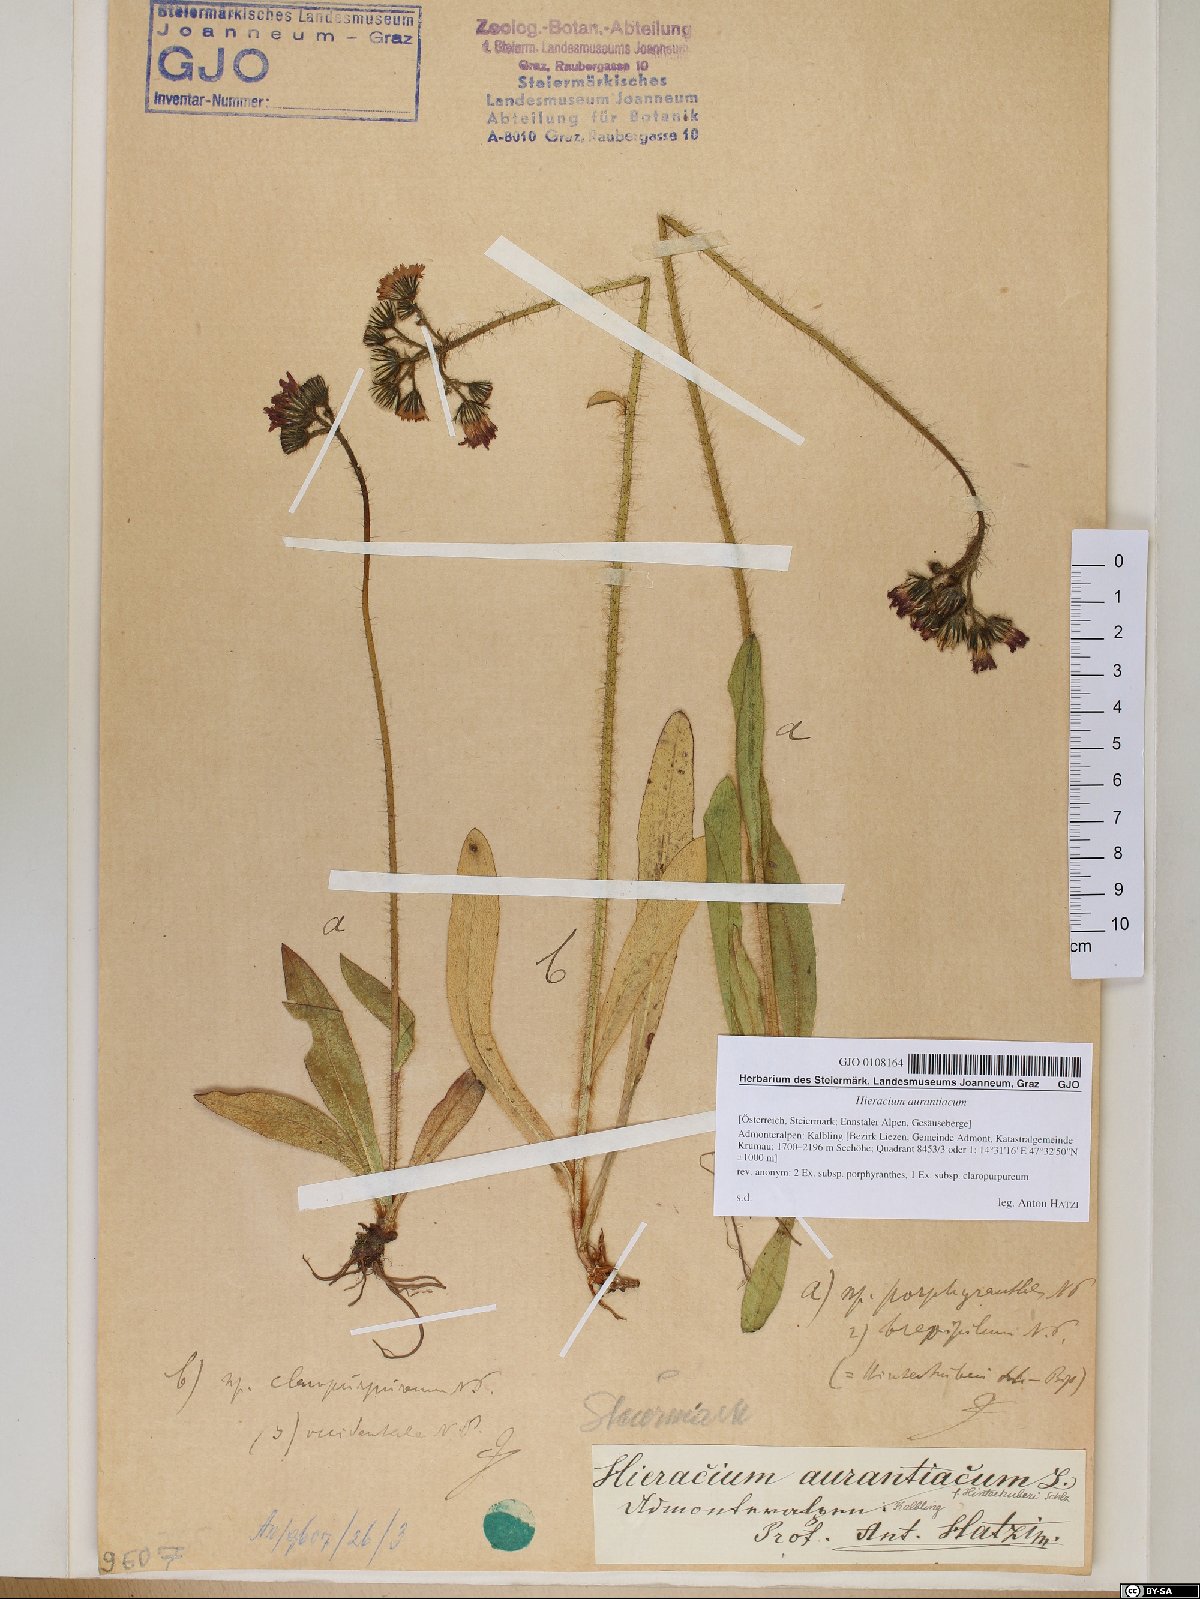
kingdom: Plantae
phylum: Tracheophyta
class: Magnoliopsida
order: Asterales
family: Asteraceae
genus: Pilosella
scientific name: Pilosella aurantiaca
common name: Fox-and-cubs
